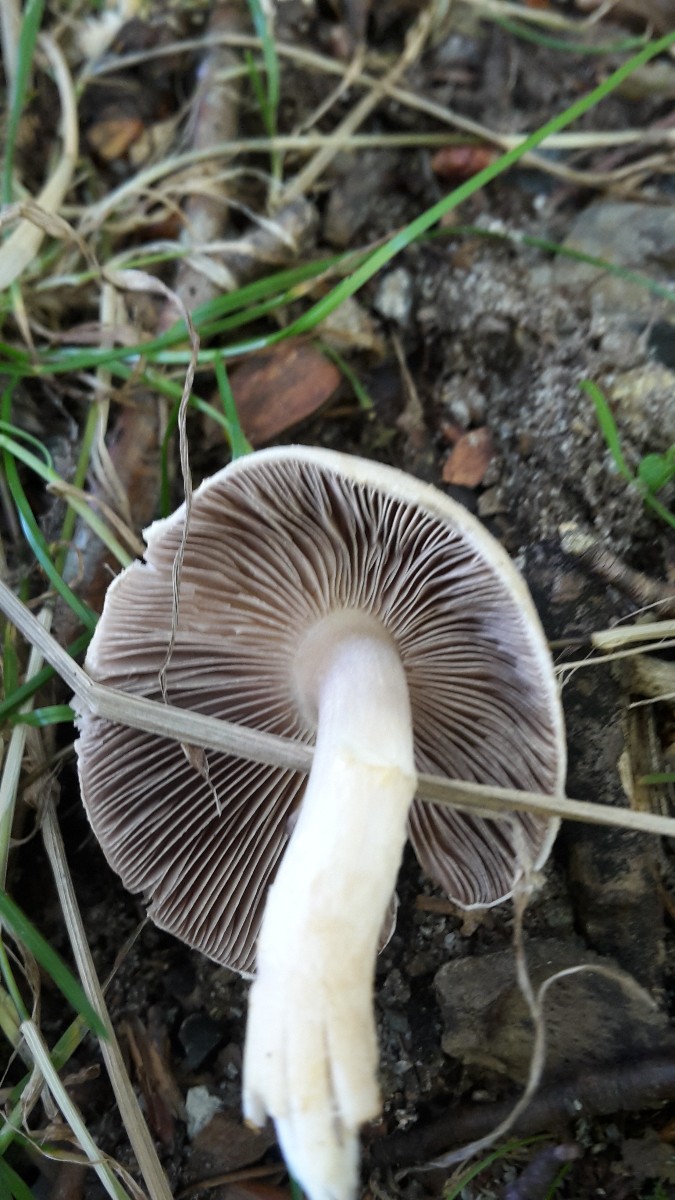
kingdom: Fungi
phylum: Basidiomycota
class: Agaricomycetes
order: Agaricales
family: Agaricaceae
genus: Agaricus
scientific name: Agaricus dulcidulus
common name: blegrød champignon
